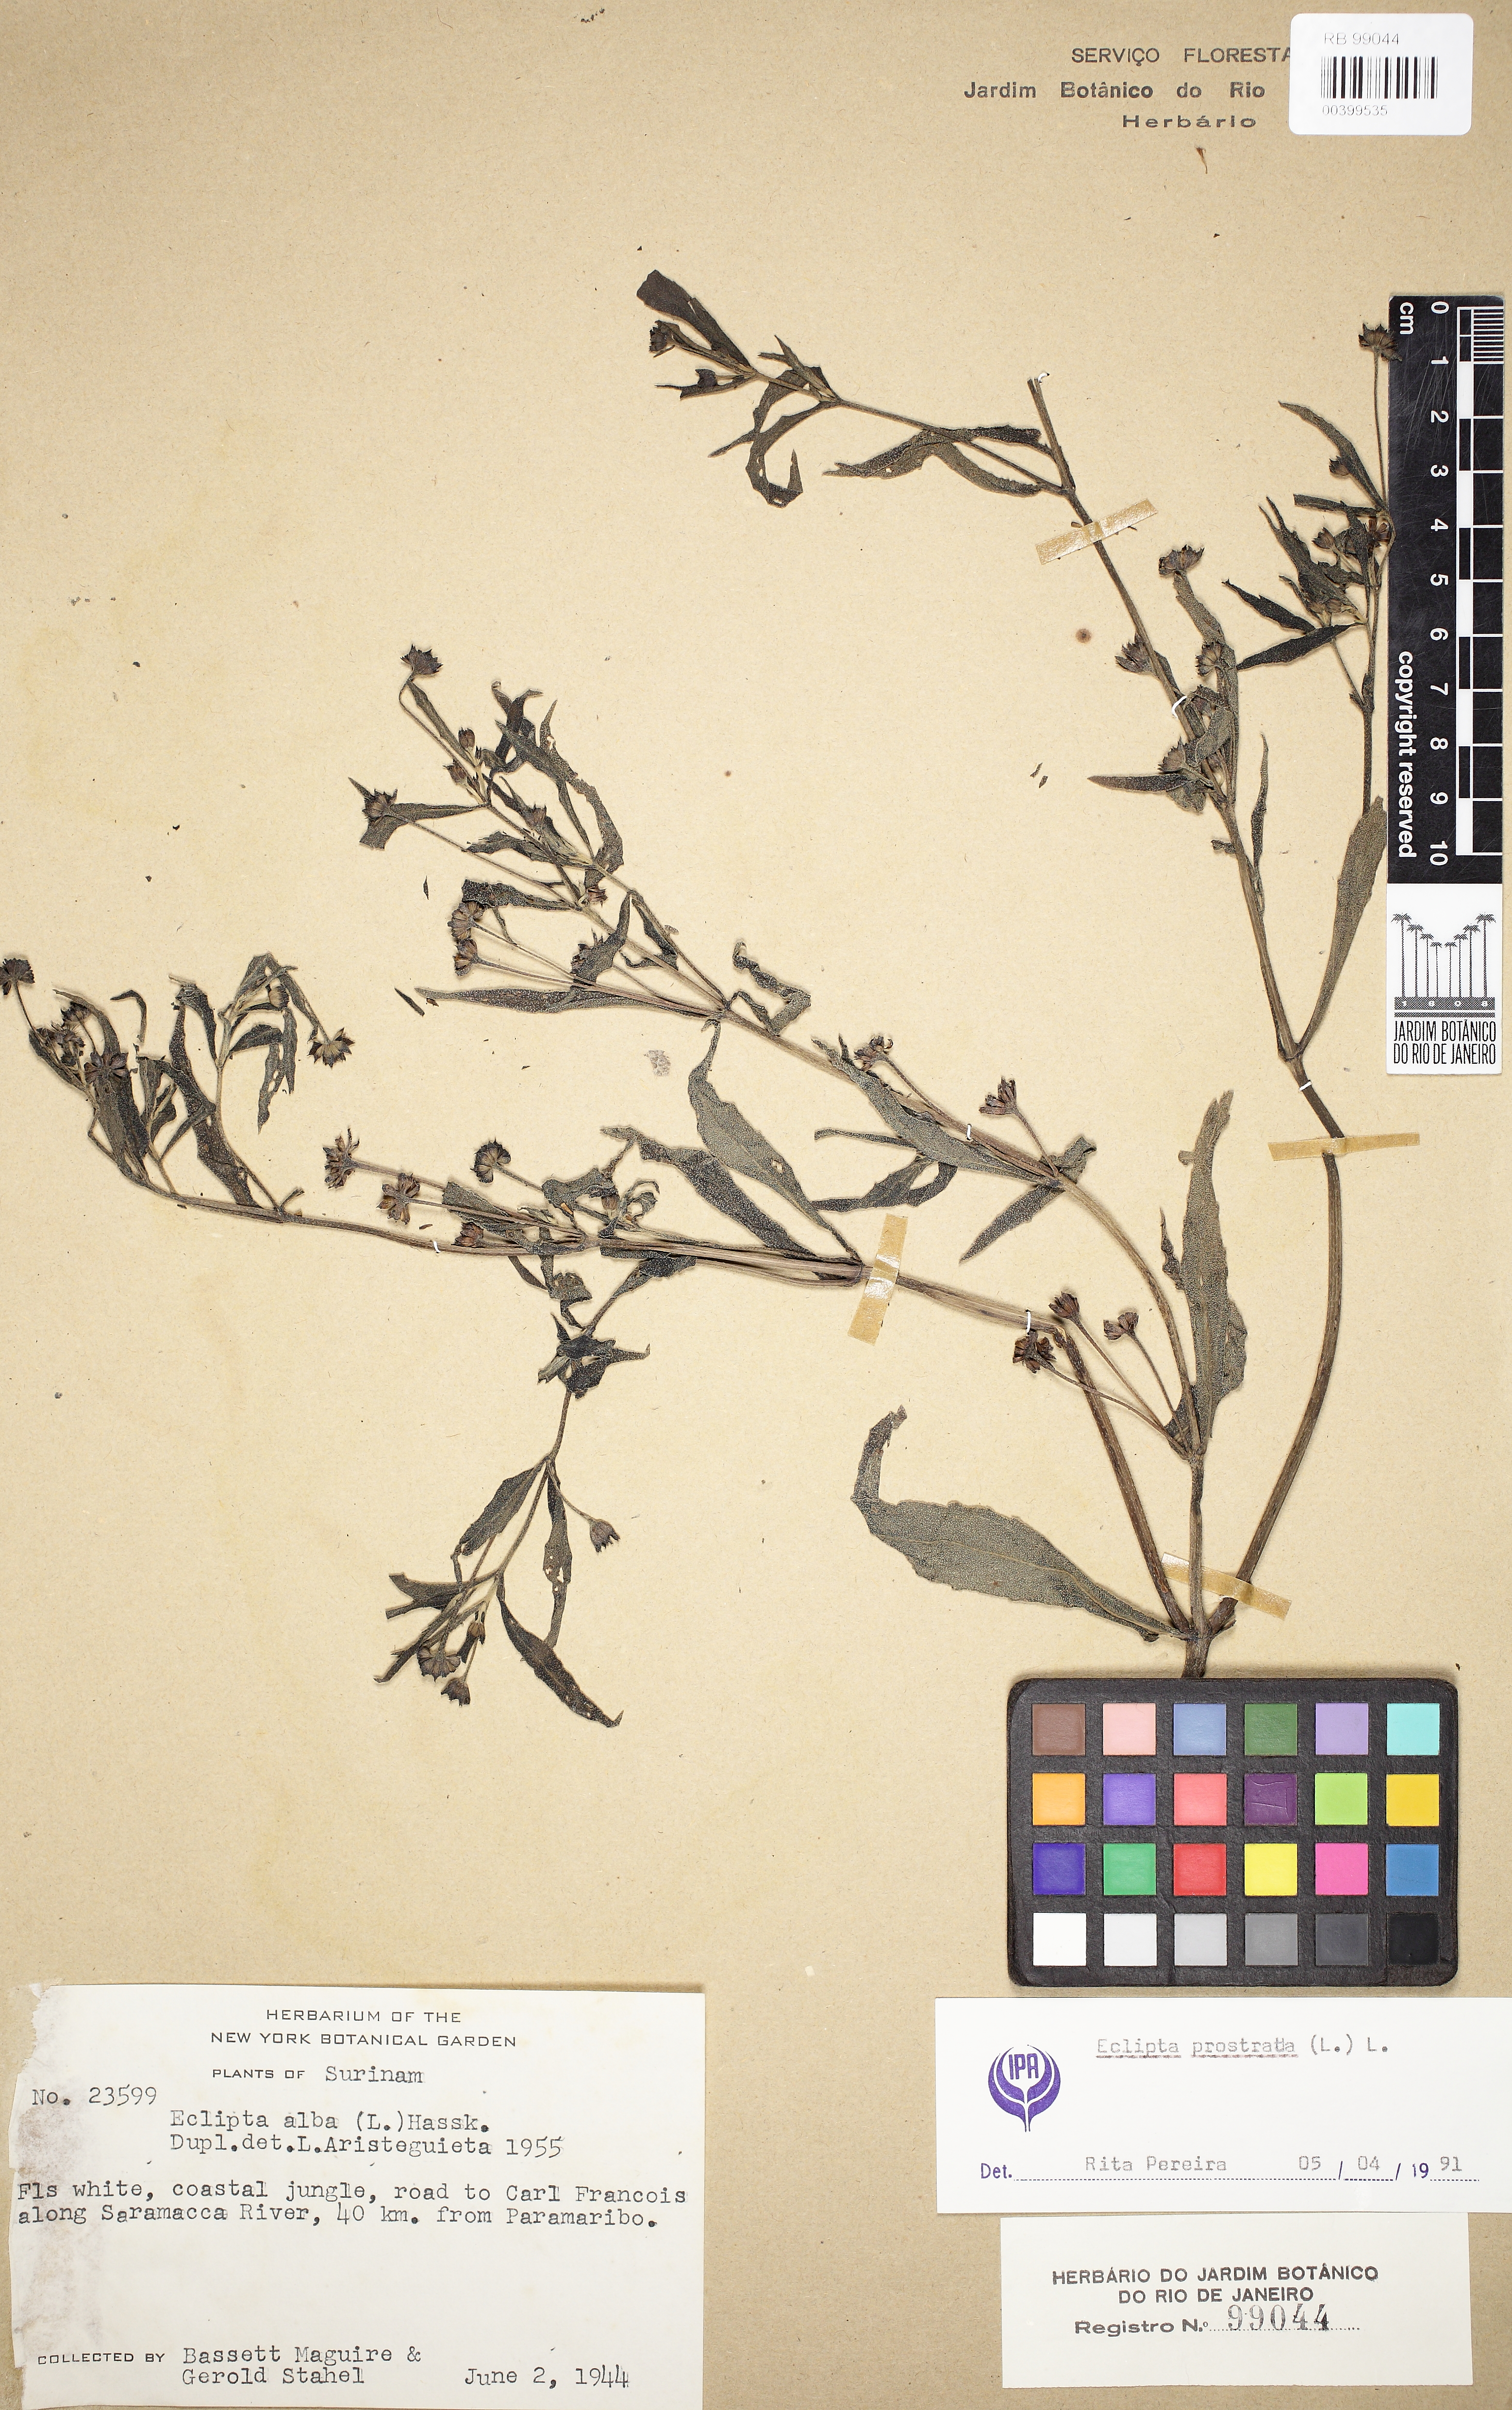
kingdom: Plantae
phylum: Tracheophyta
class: Magnoliopsida
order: Asterales
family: Asteraceae
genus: Eclipta
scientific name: Eclipta prostrata
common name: False daisy
